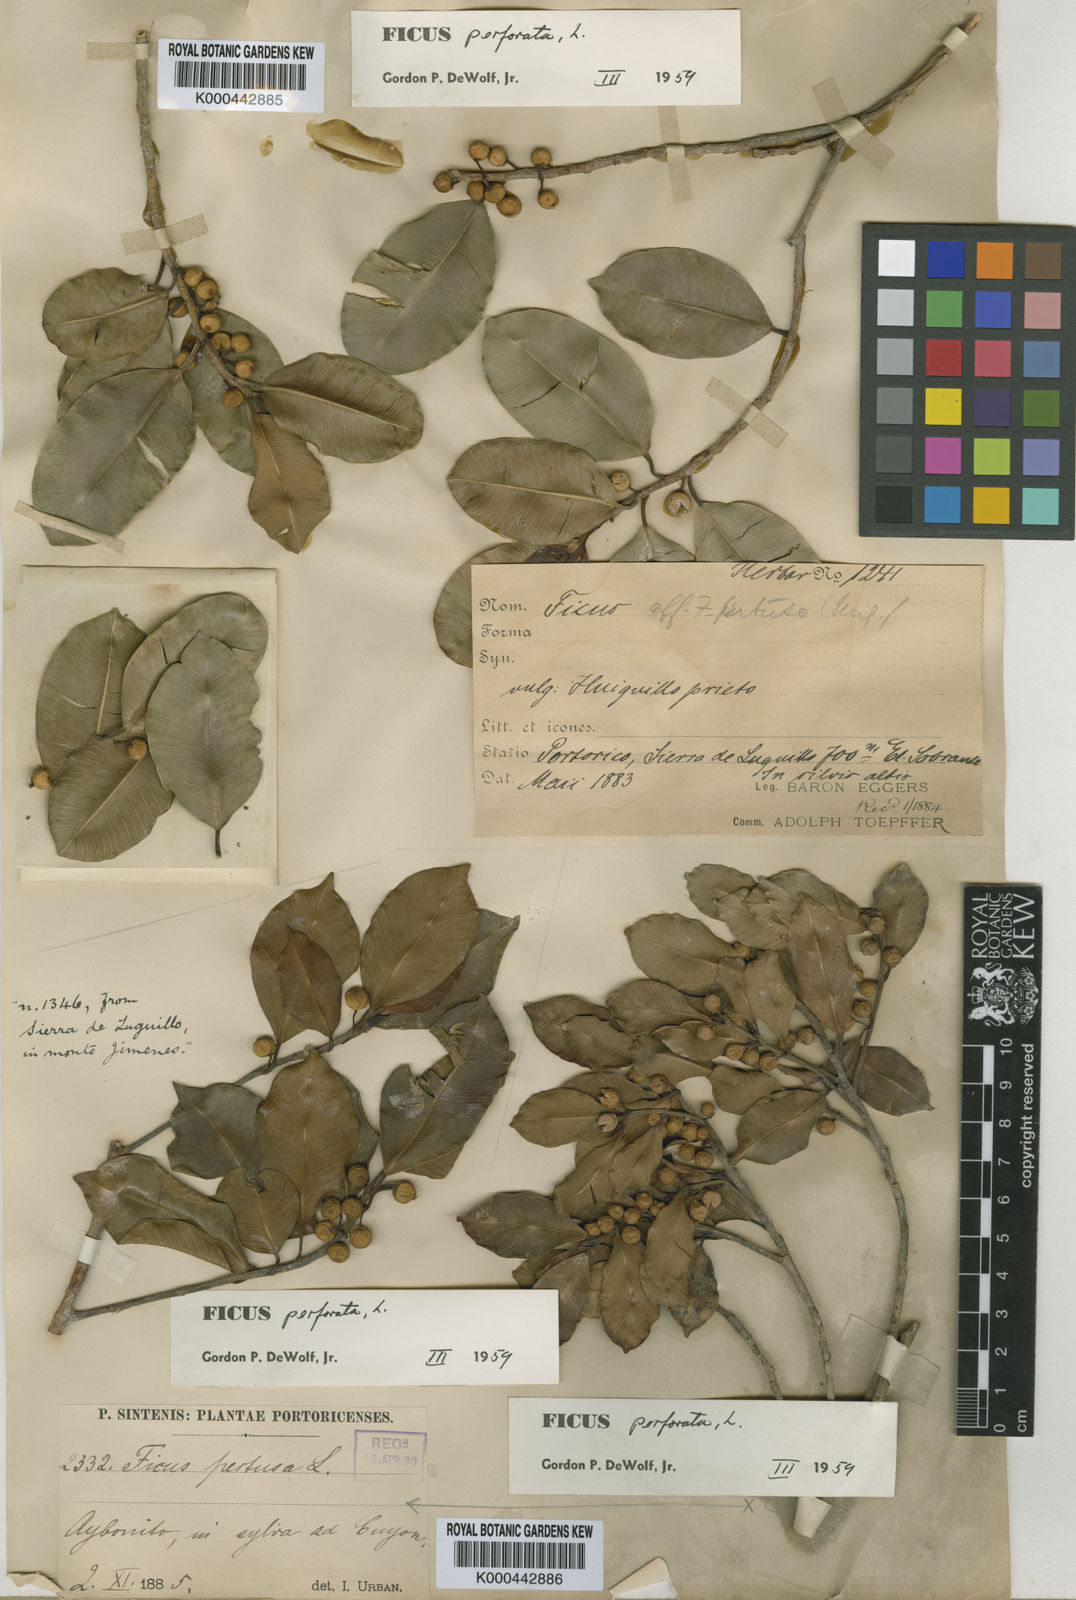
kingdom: Plantae
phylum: Tracheophyta
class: Magnoliopsida
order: Rosales
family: Moraceae
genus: Ficus
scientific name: Ficus americana
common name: Jamaican cherry fig
